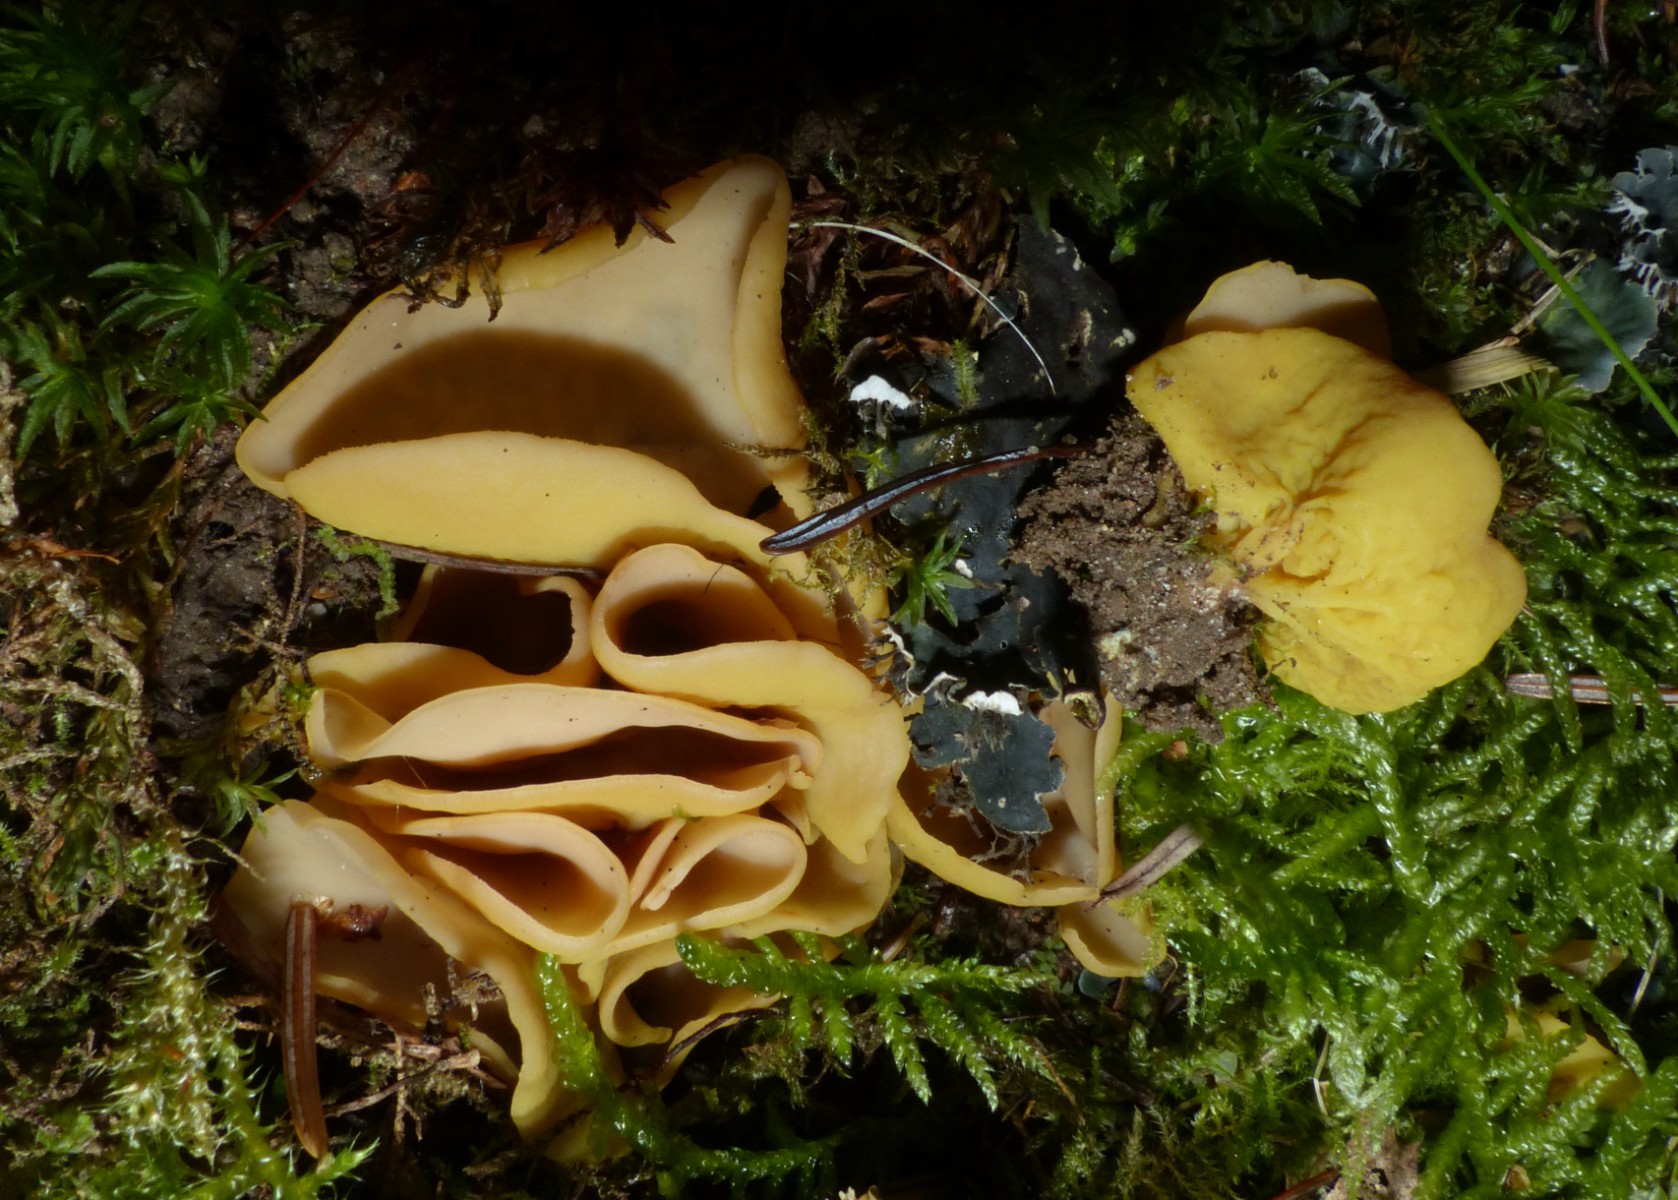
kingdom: Fungi
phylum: Ascomycota
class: Pezizomycetes
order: Pezizales
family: Otideaceae
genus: Otidea
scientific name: Otidea
